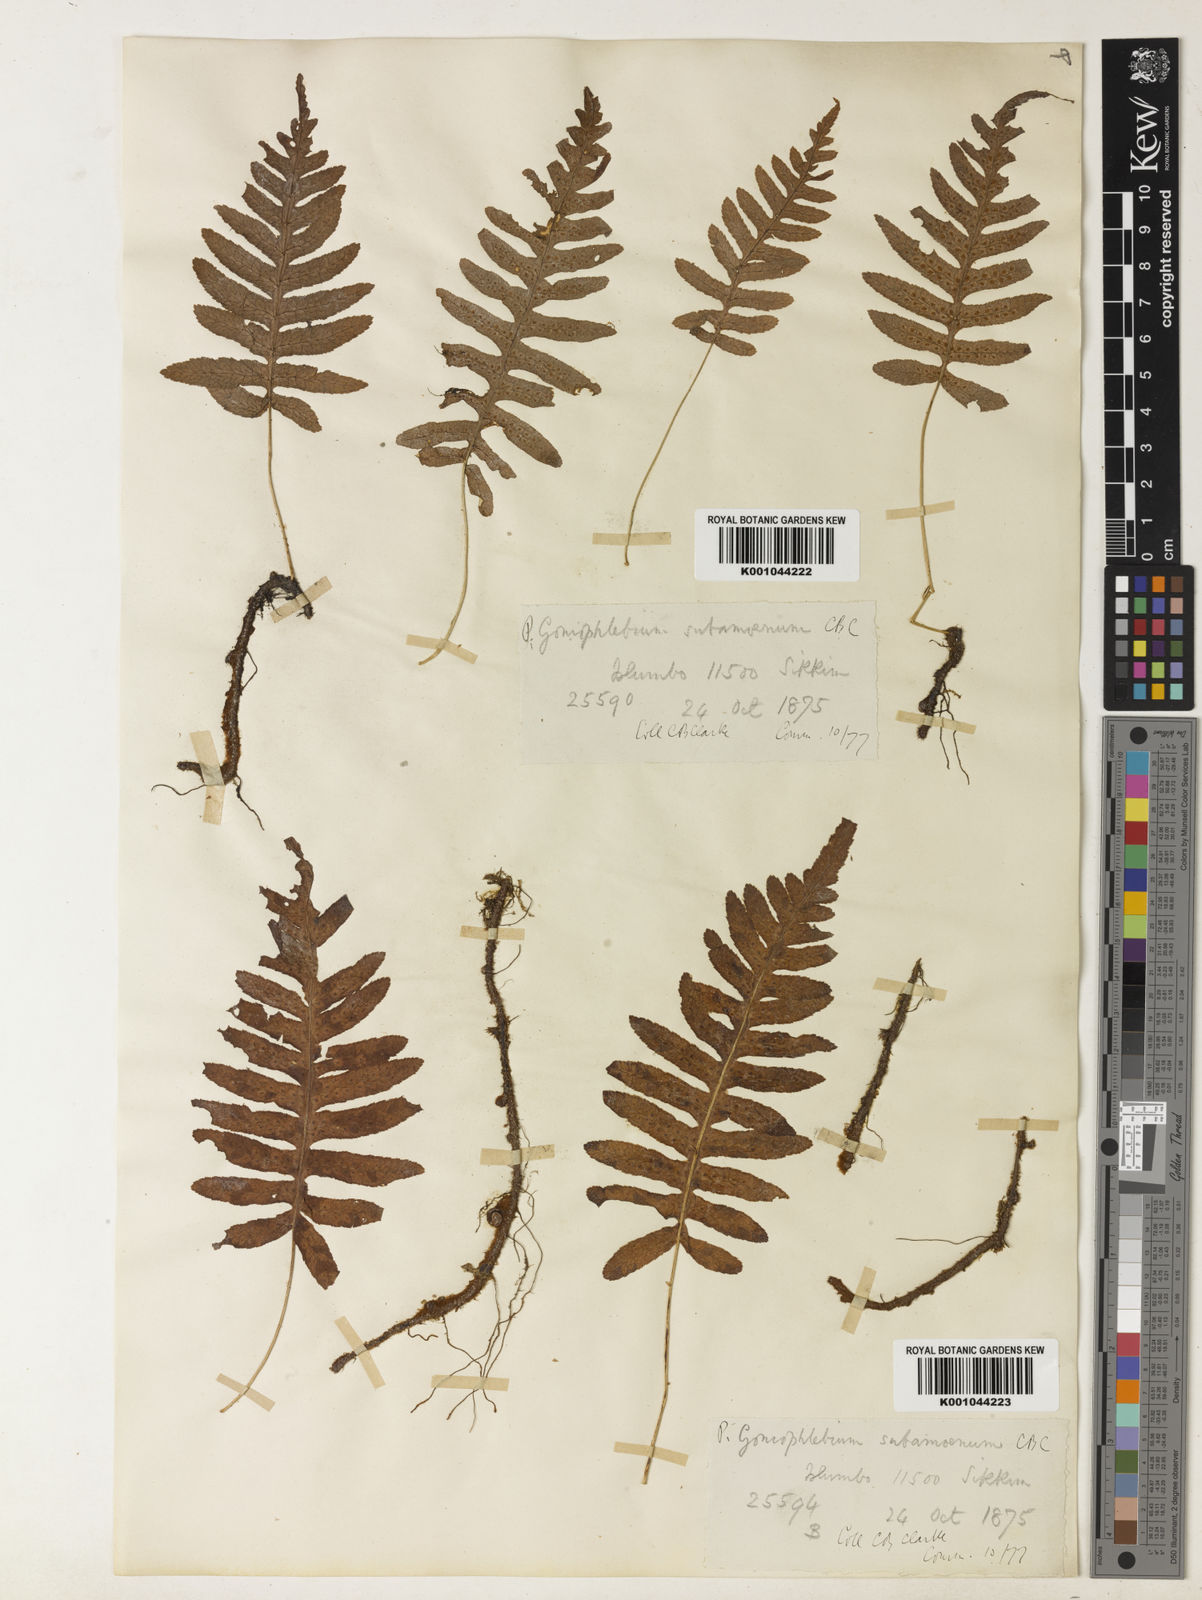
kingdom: Plantae
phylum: Tracheophyta
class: Polypodiopsida
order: Polypodiales
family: Polypodiaceae
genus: Goniophlebium
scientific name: Goniophlebium subamoenum
